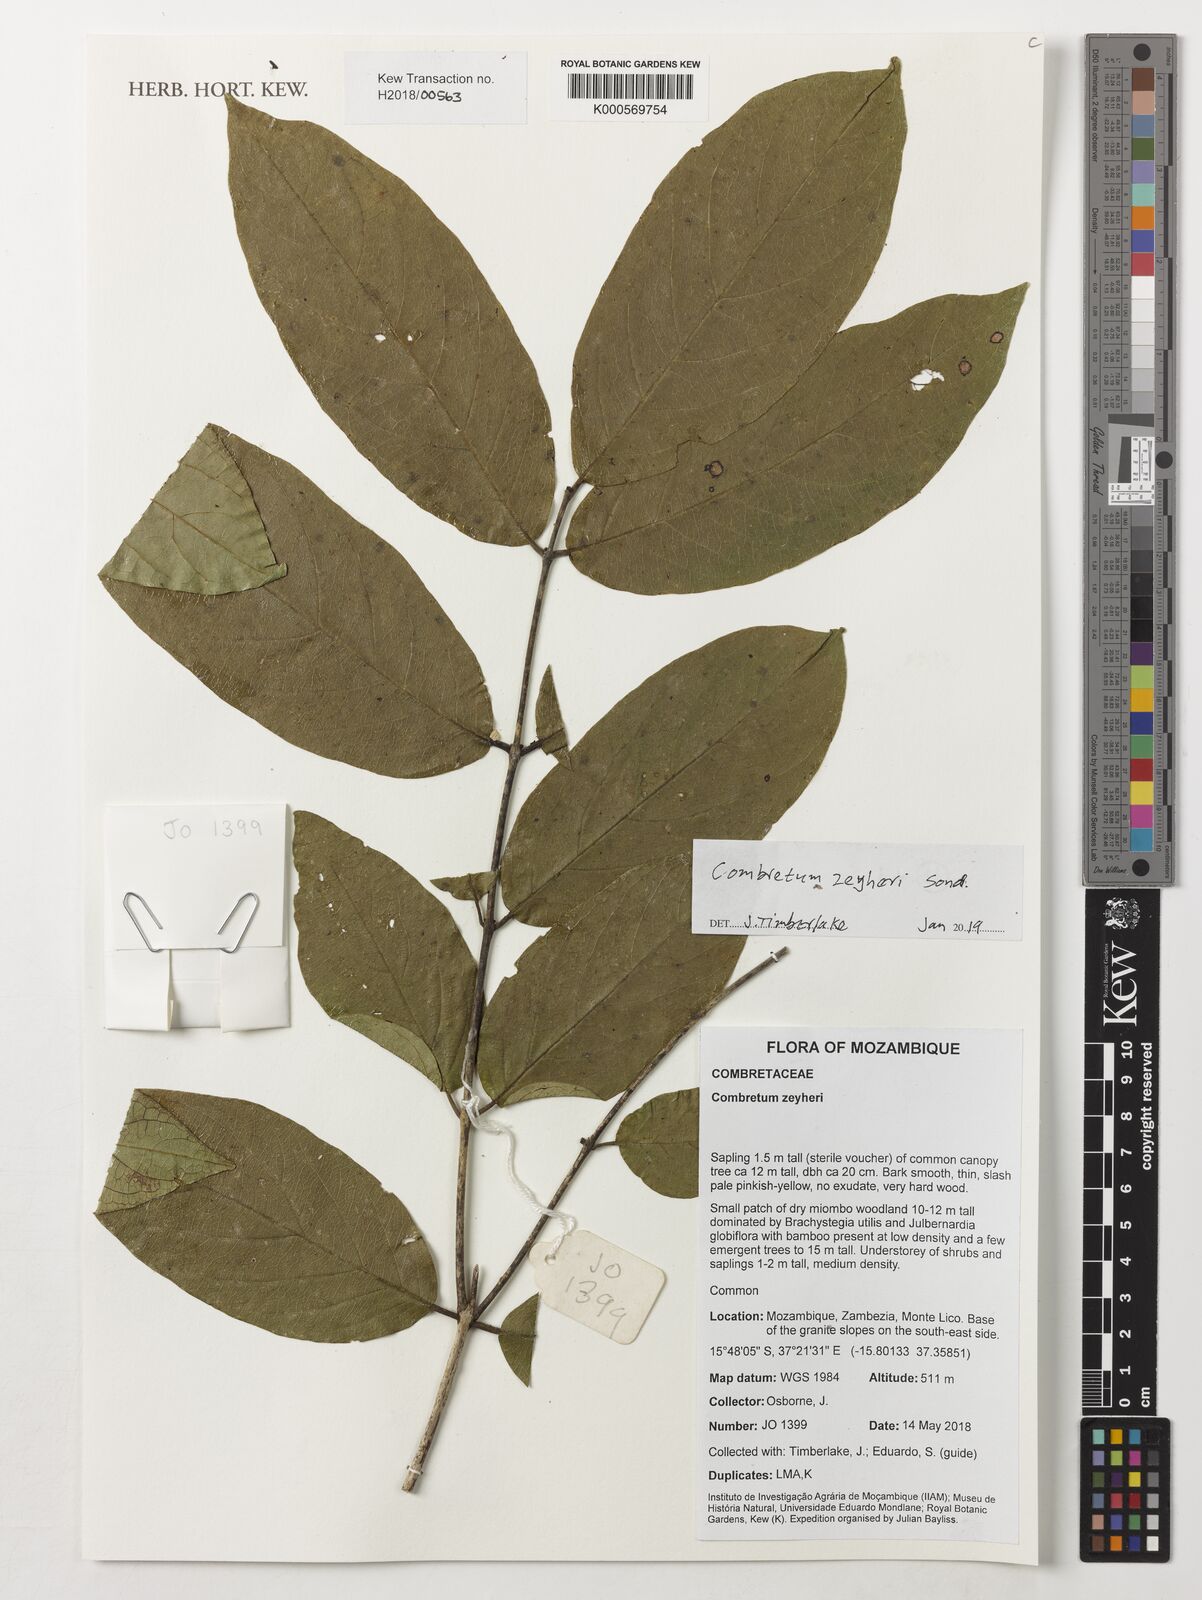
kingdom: Plantae
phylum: Tracheophyta
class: Magnoliopsida
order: Myrtales
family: Combretaceae
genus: Combretum
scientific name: Combretum zeyheri
